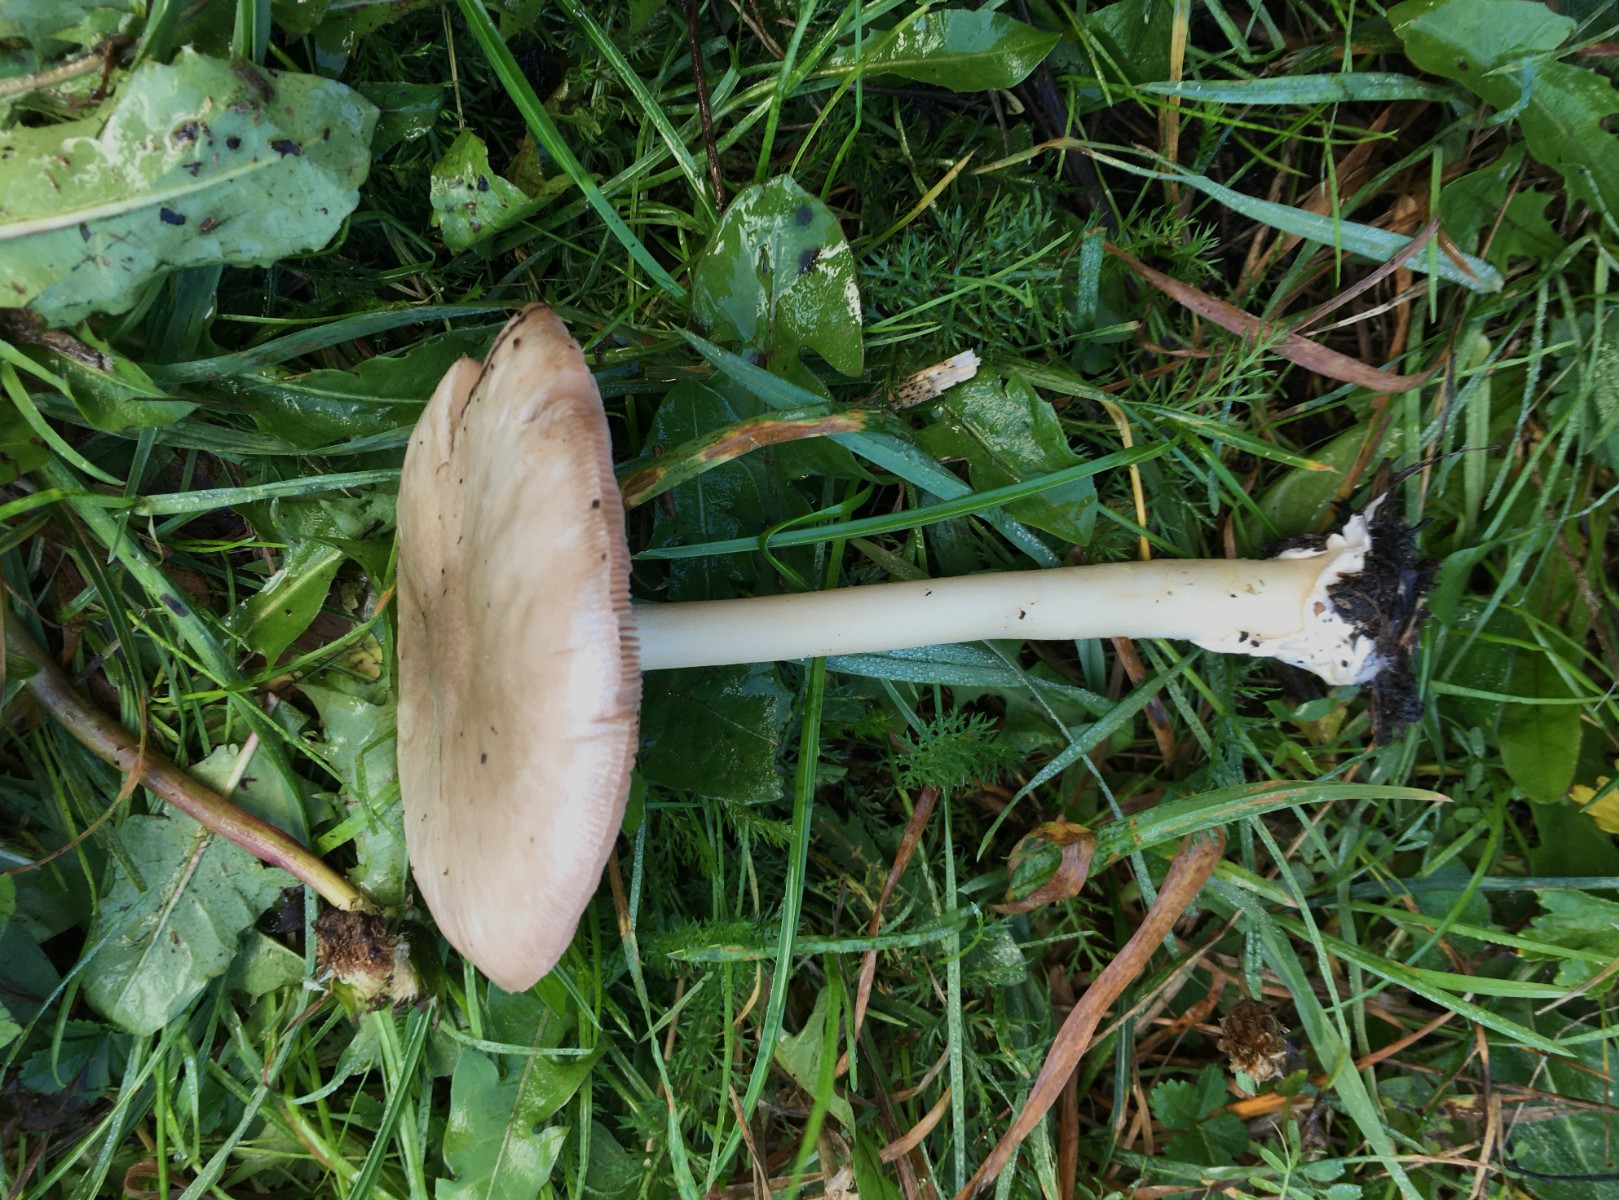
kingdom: Fungi
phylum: Basidiomycota
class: Agaricomycetes
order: Agaricales
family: Pluteaceae
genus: Volvopluteus
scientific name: Volvopluteus gloiocephalus
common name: høj posesvamp
